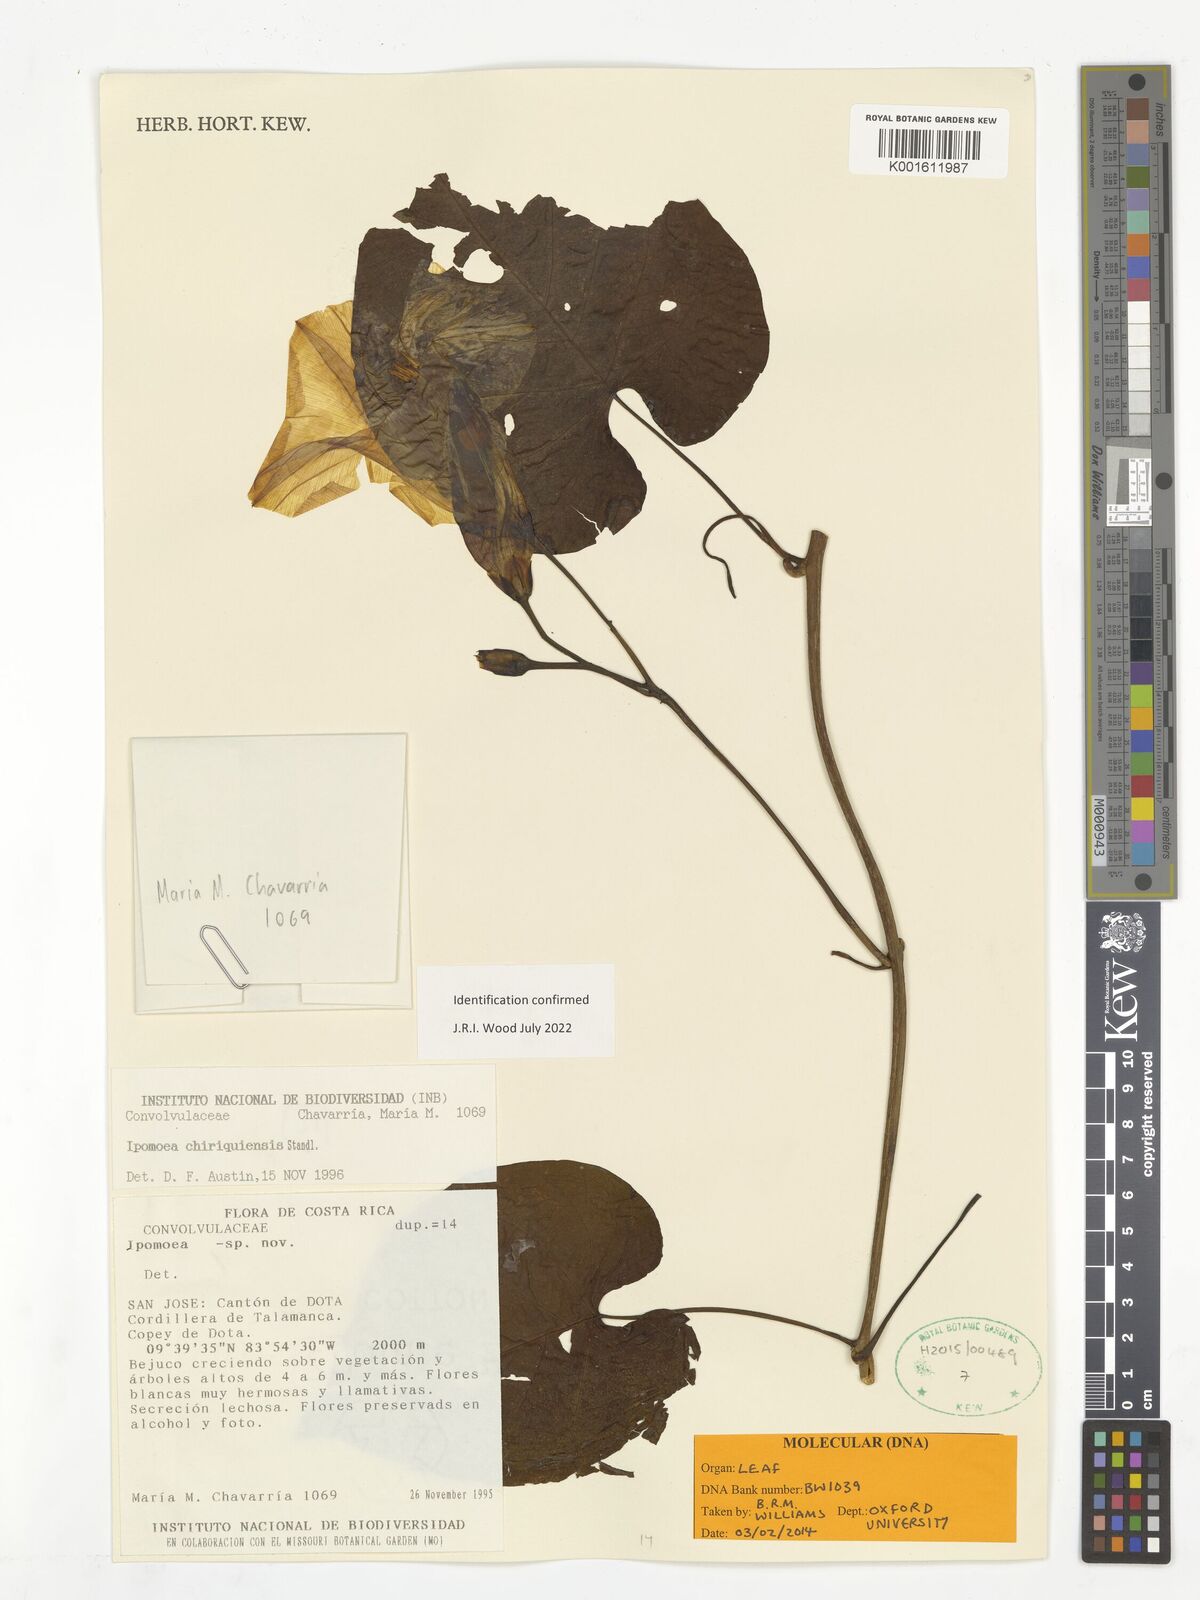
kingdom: Plantae
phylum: Tracheophyta
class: Magnoliopsida
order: Solanales
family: Convolvulaceae
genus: Ipomoea
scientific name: Ipomoea chiriquensis
